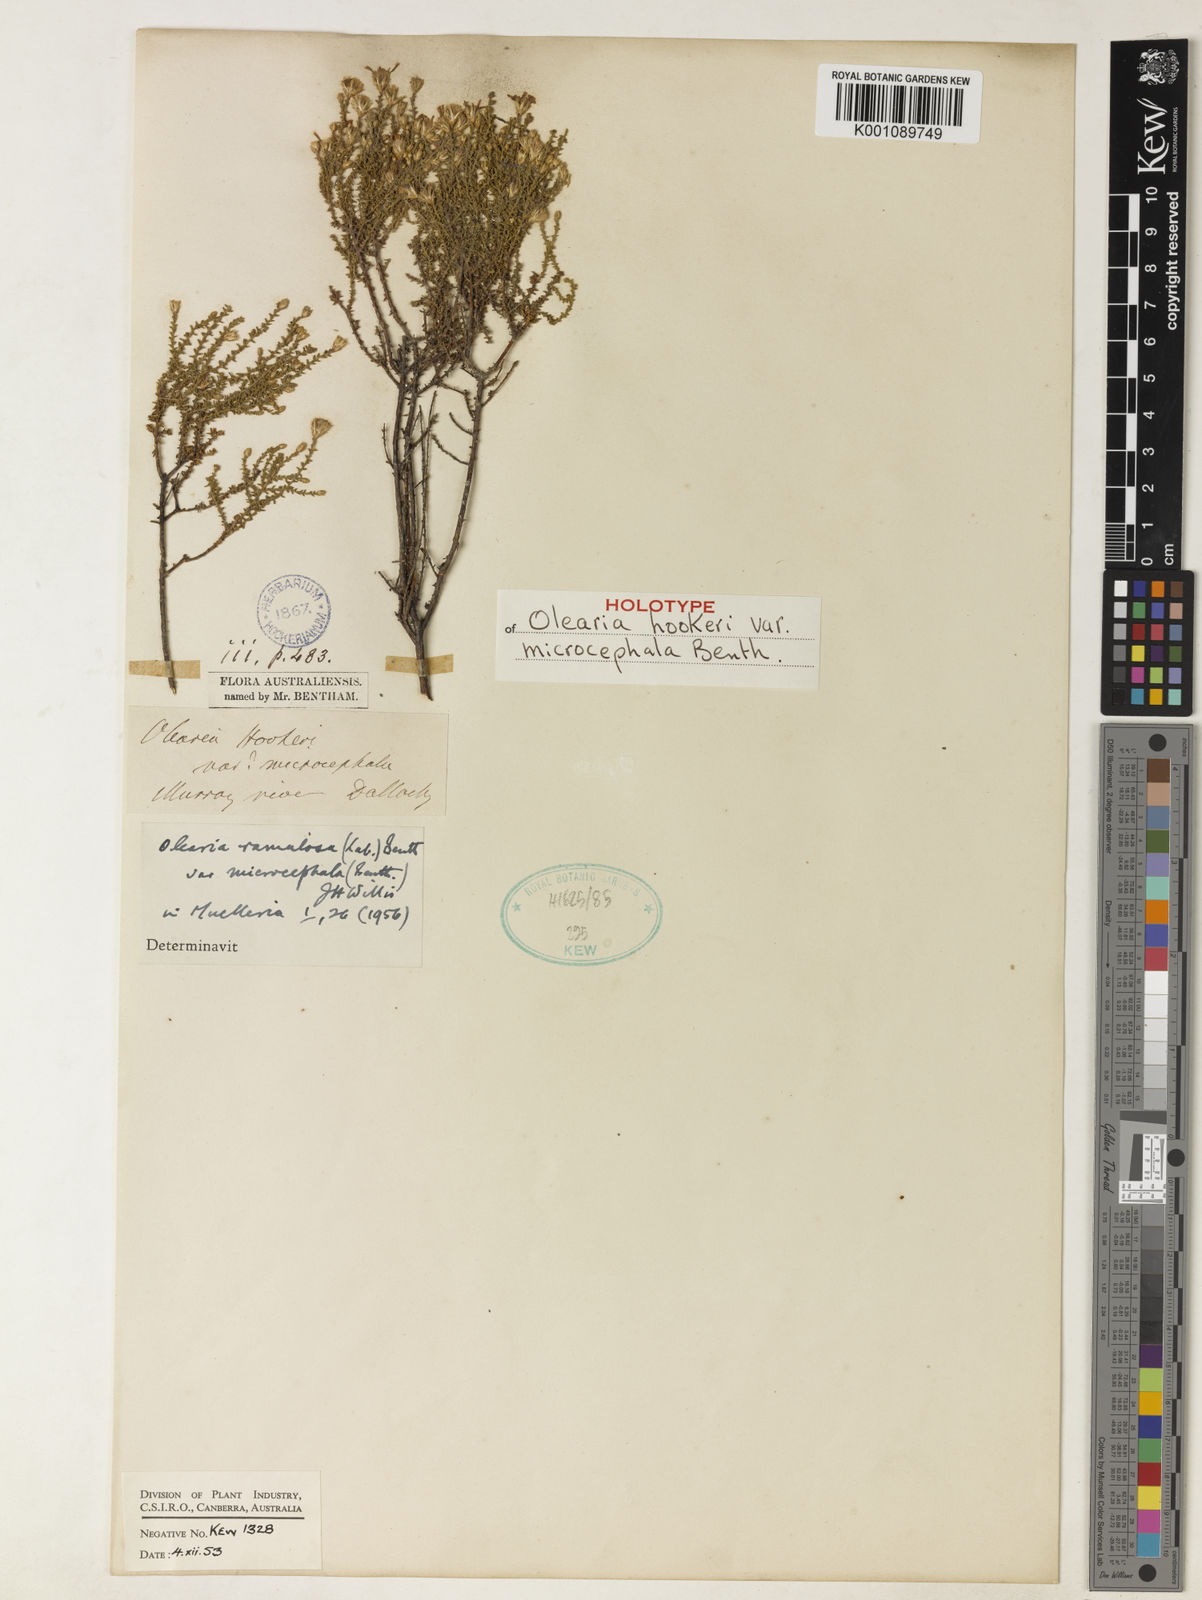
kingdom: Plantae
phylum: Tracheophyta
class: Magnoliopsida
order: Asterales
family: Asteraceae
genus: Olearia
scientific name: Olearia ramulosa
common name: Twiggy daisybush
